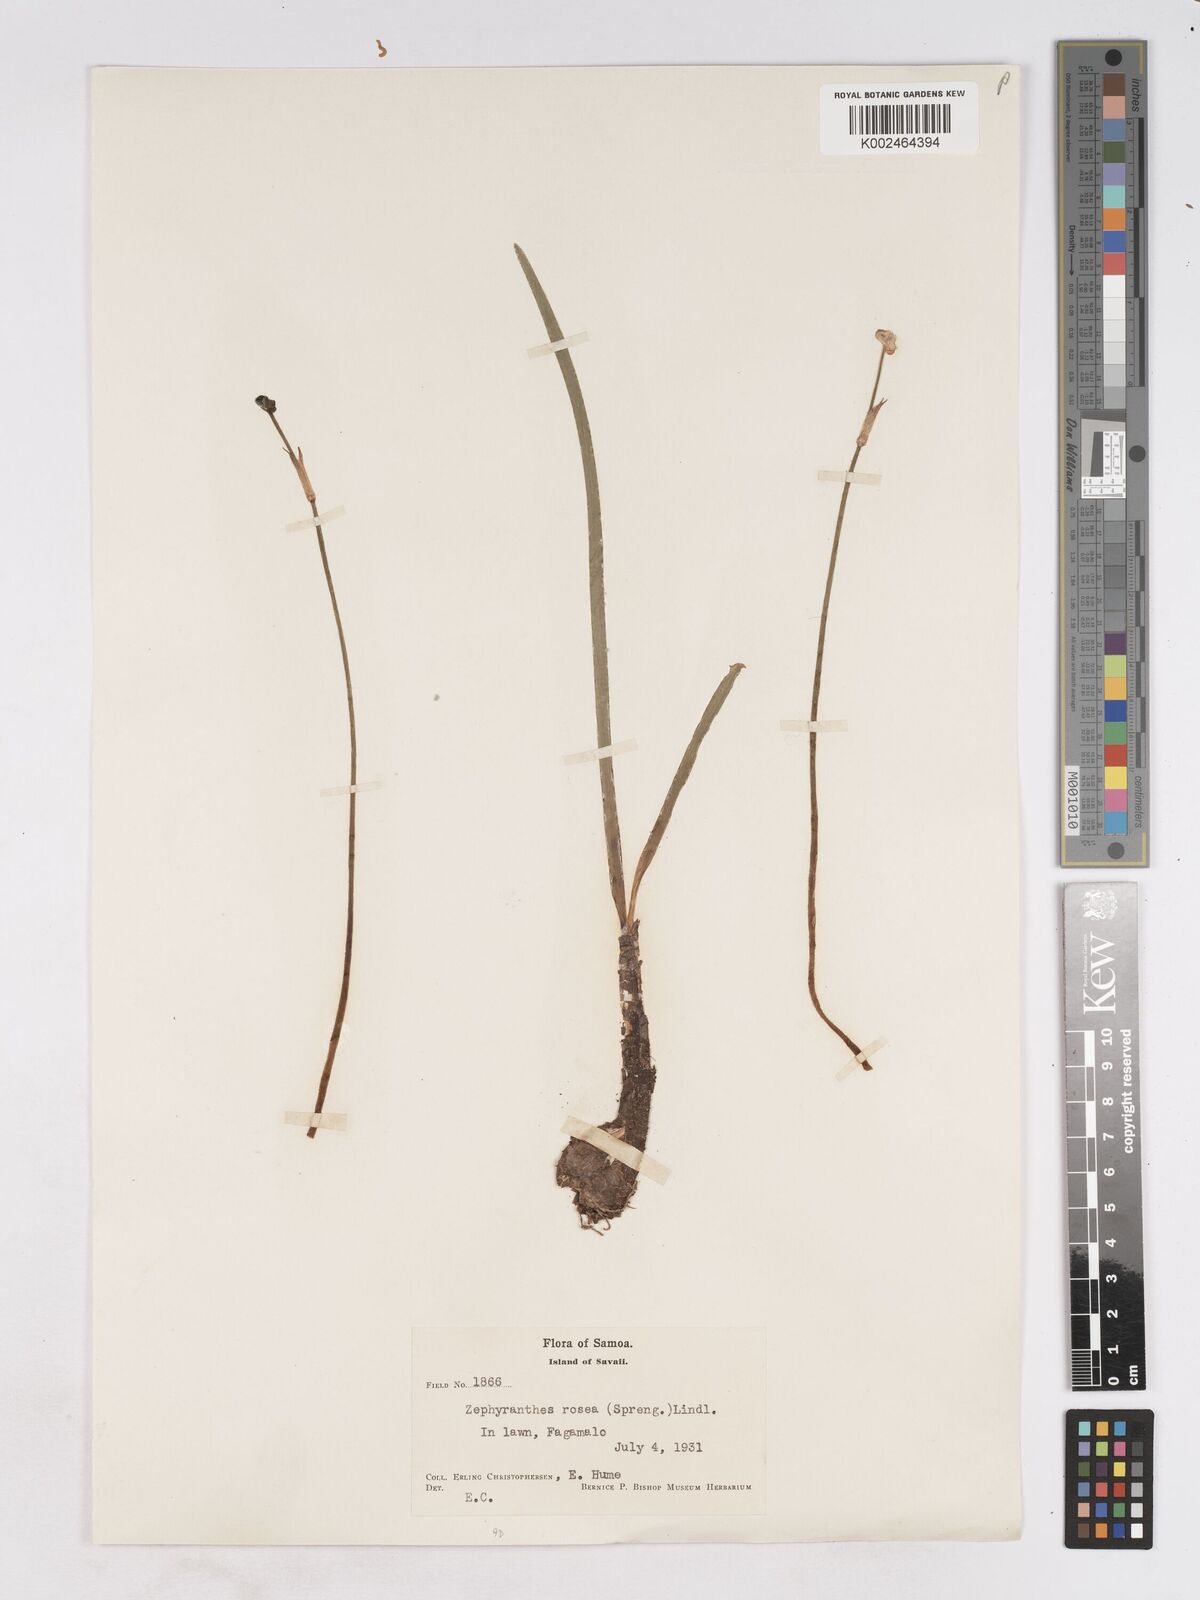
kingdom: Plantae
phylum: Tracheophyta
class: Liliopsida
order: Asparagales
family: Amaryllidaceae
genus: Zephyranthes
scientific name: Zephyranthes rosea
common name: Cuban zephyrlily
